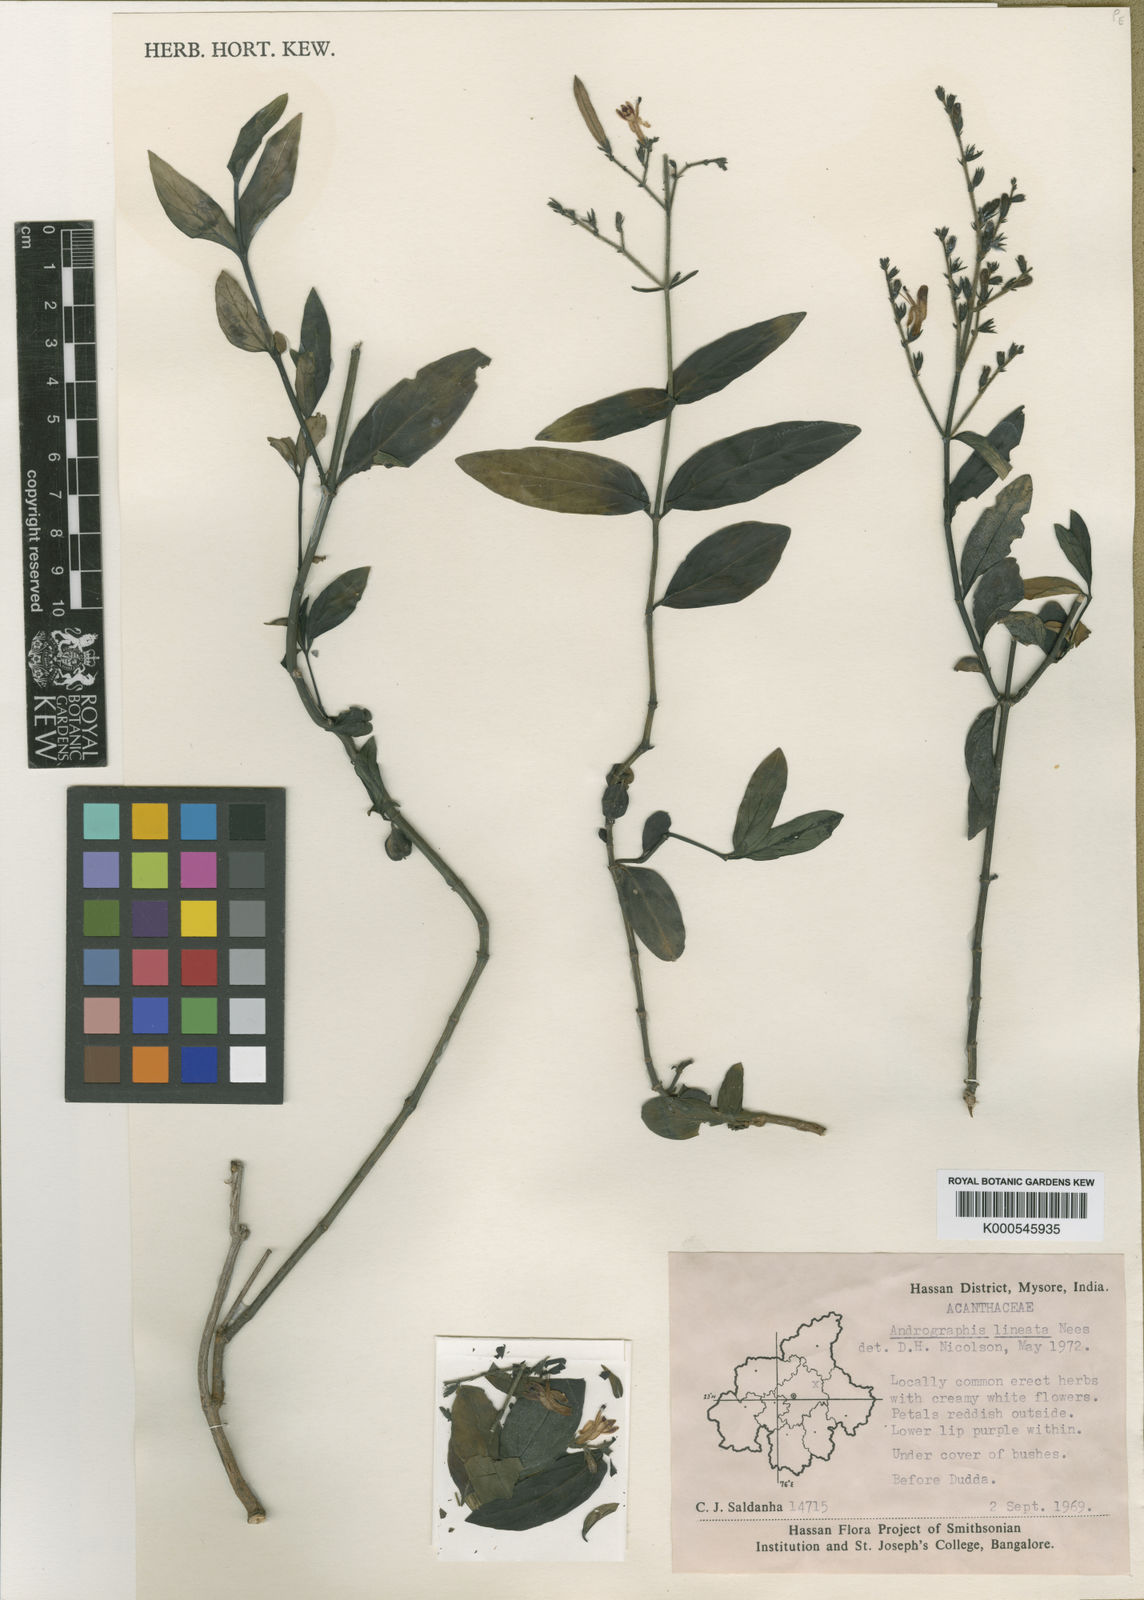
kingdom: Plantae
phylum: Tracheophyta
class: Magnoliopsida
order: Lamiales
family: Acanthaceae
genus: Andrographis
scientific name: Andrographis lineata
